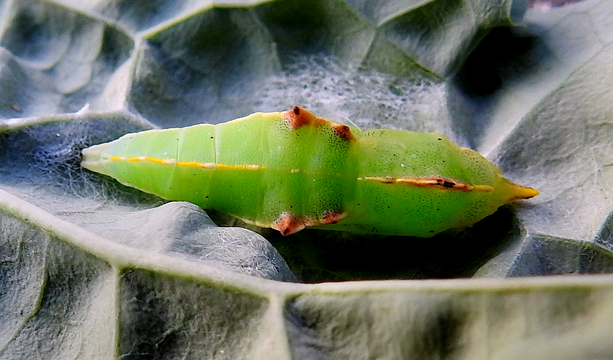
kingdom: Animalia
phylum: Arthropoda
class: Insecta
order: Lepidoptera
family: Pieridae
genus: Pieris
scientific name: Pieris rapae
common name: Cabbage White
